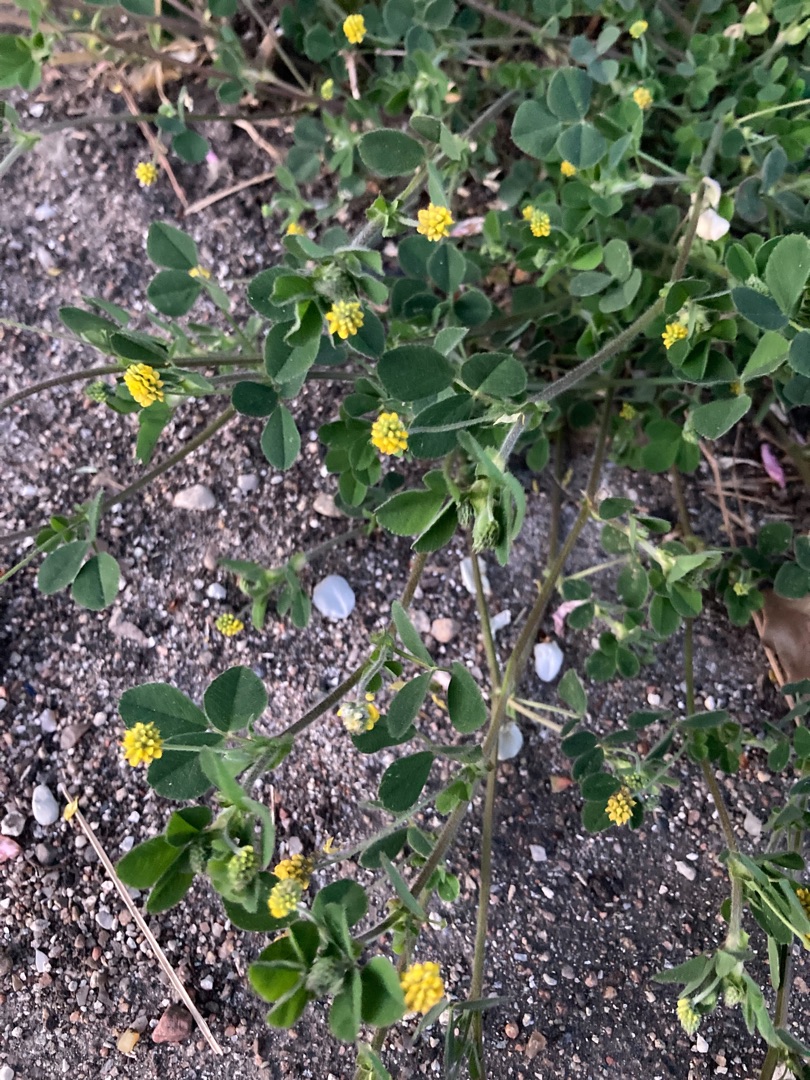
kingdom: Plantae
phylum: Tracheophyta
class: Magnoliopsida
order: Fabales
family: Fabaceae
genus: Medicago
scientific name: Medicago lupulina
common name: Humle-sneglebælg
